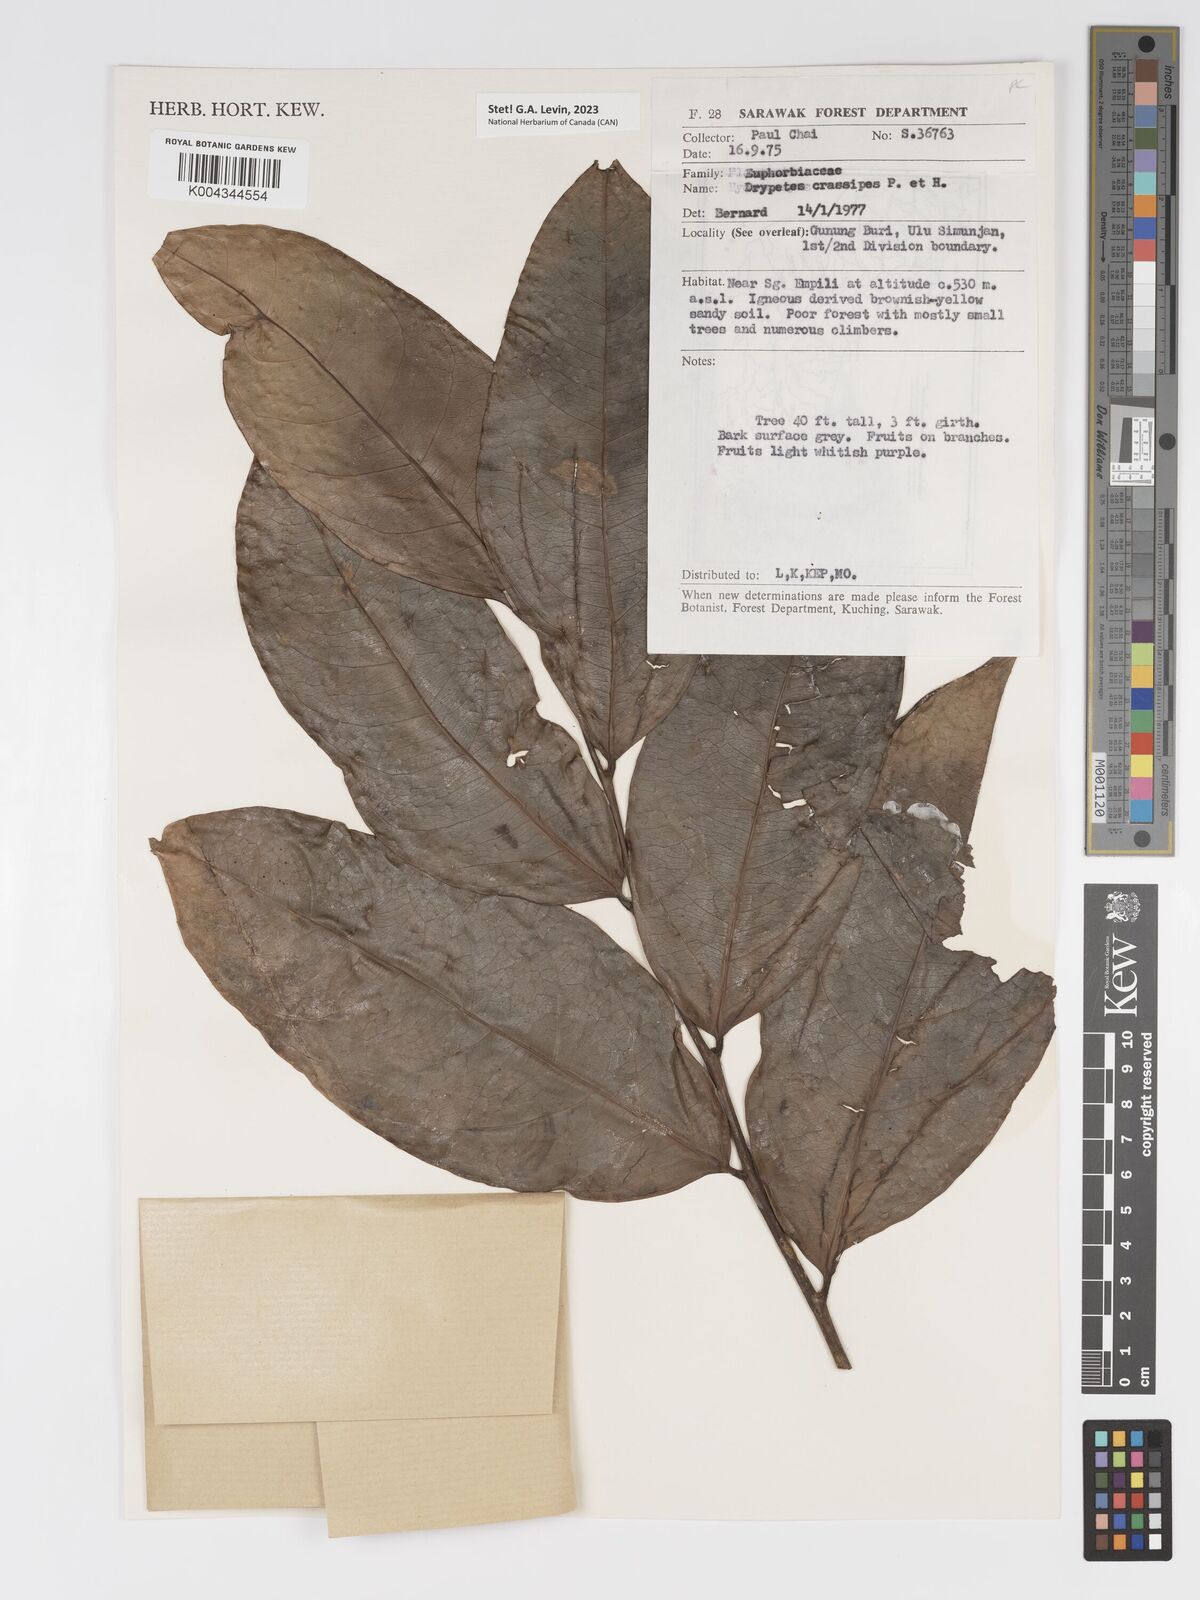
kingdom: Plantae
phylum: Tracheophyta
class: Magnoliopsida
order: Malpighiales
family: Putranjivaceae
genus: Drypetes
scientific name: Drypetes crassipes
